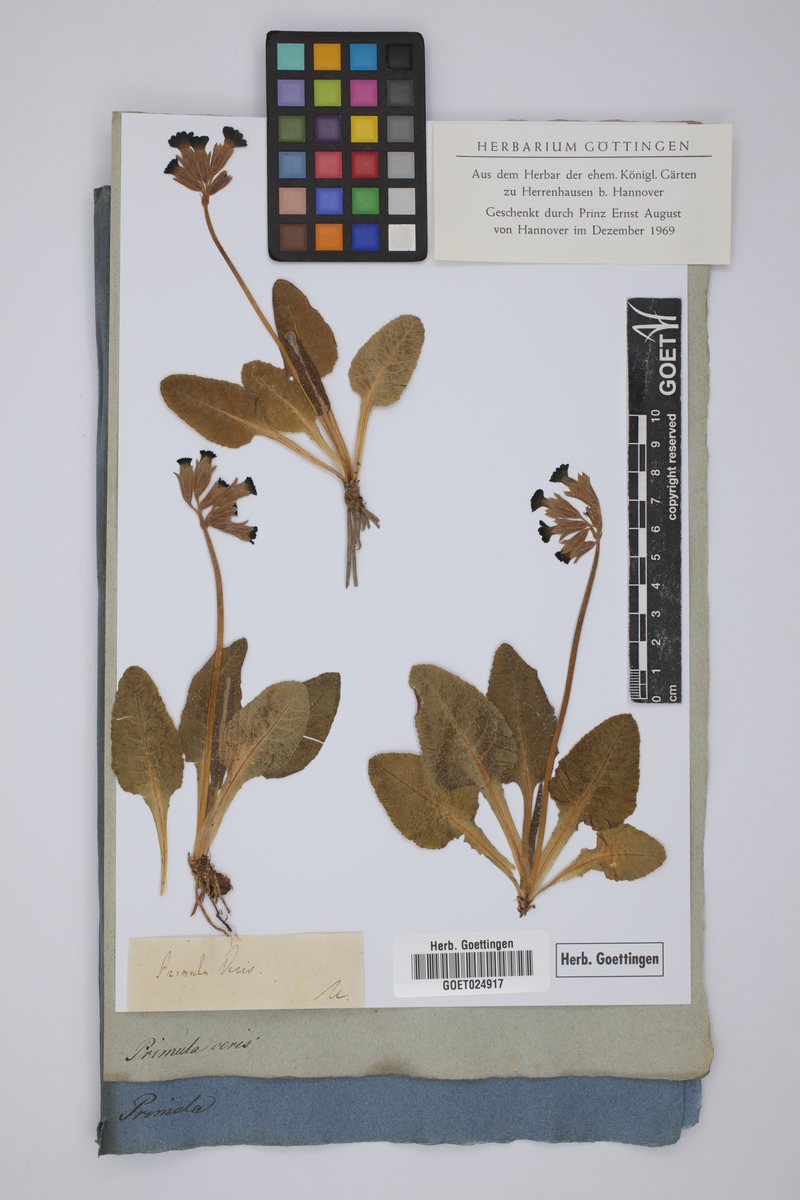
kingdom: Plantae
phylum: Tracheophyta
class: Magnoliopsida
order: Ericales
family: Primulaceae
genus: Primula
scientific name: Primula veris
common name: Cowslip
